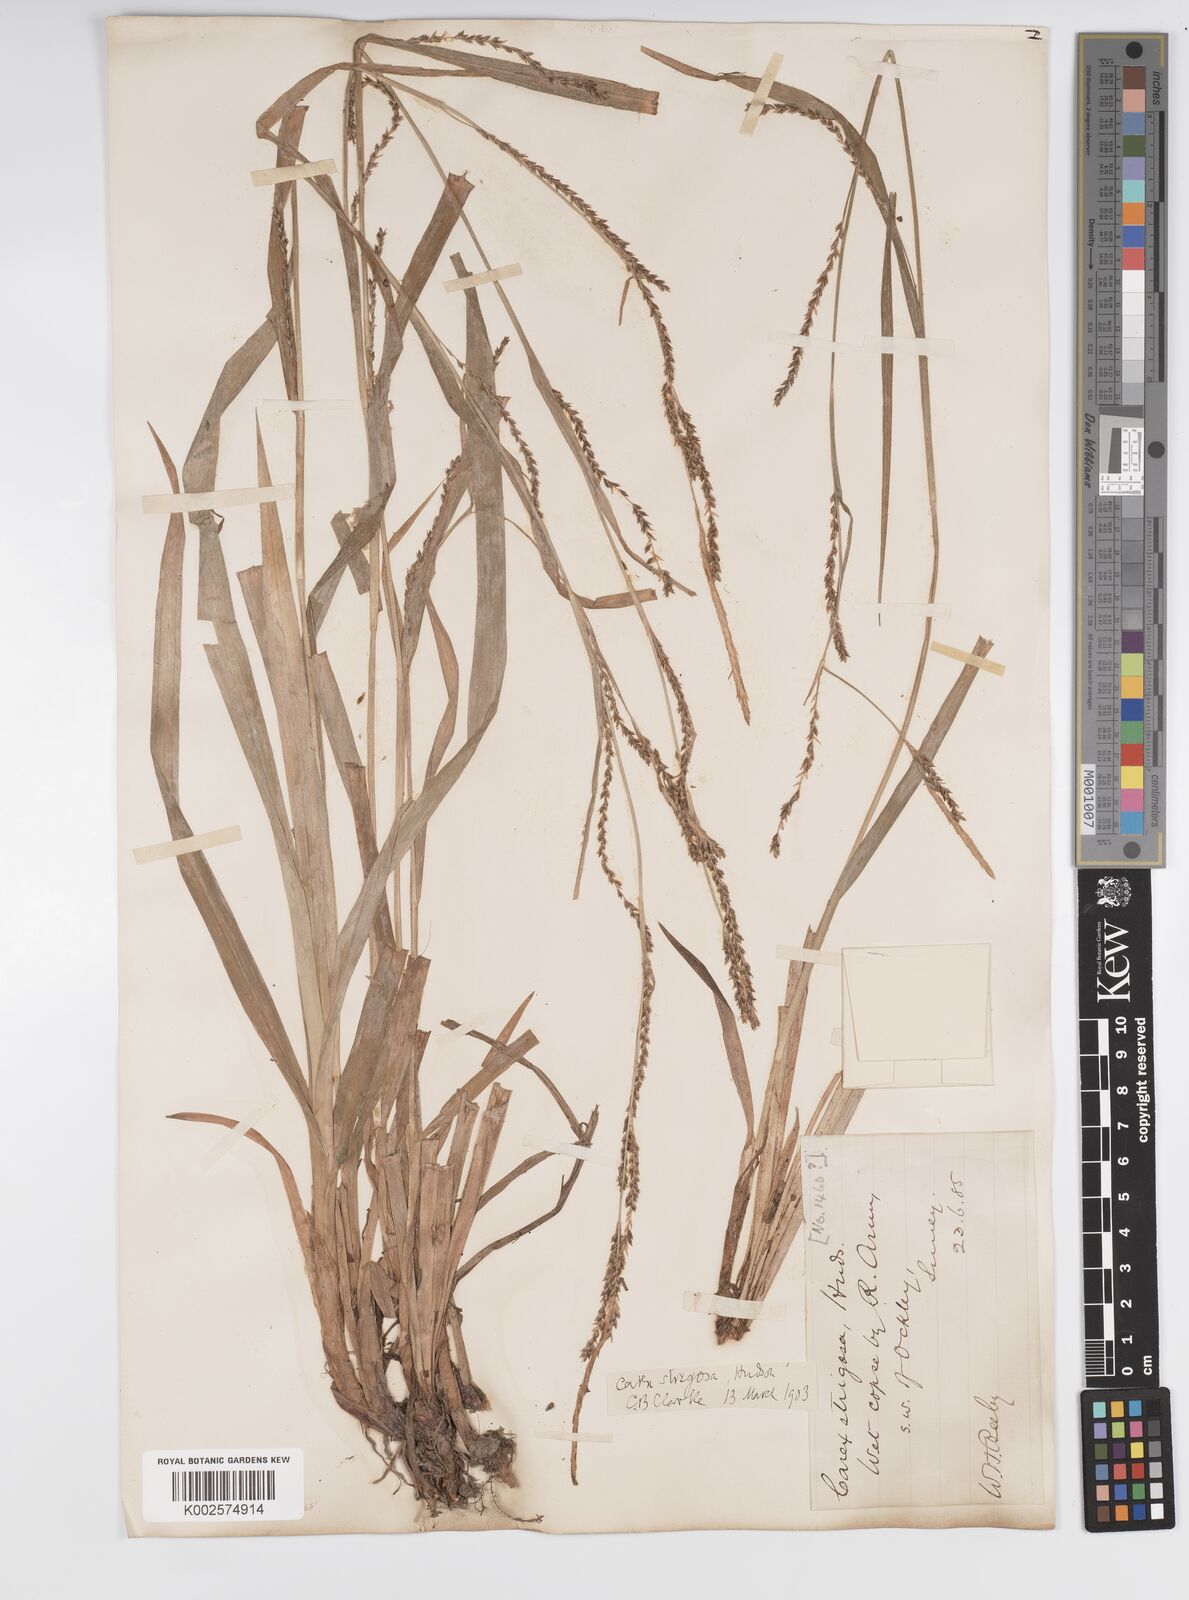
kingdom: Plantae
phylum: Tracheophyta
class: Liliopsida
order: Poales
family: Cyperaceae
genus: Carex
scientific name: Carex strigosa
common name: Thin-spiked wood-sedge
